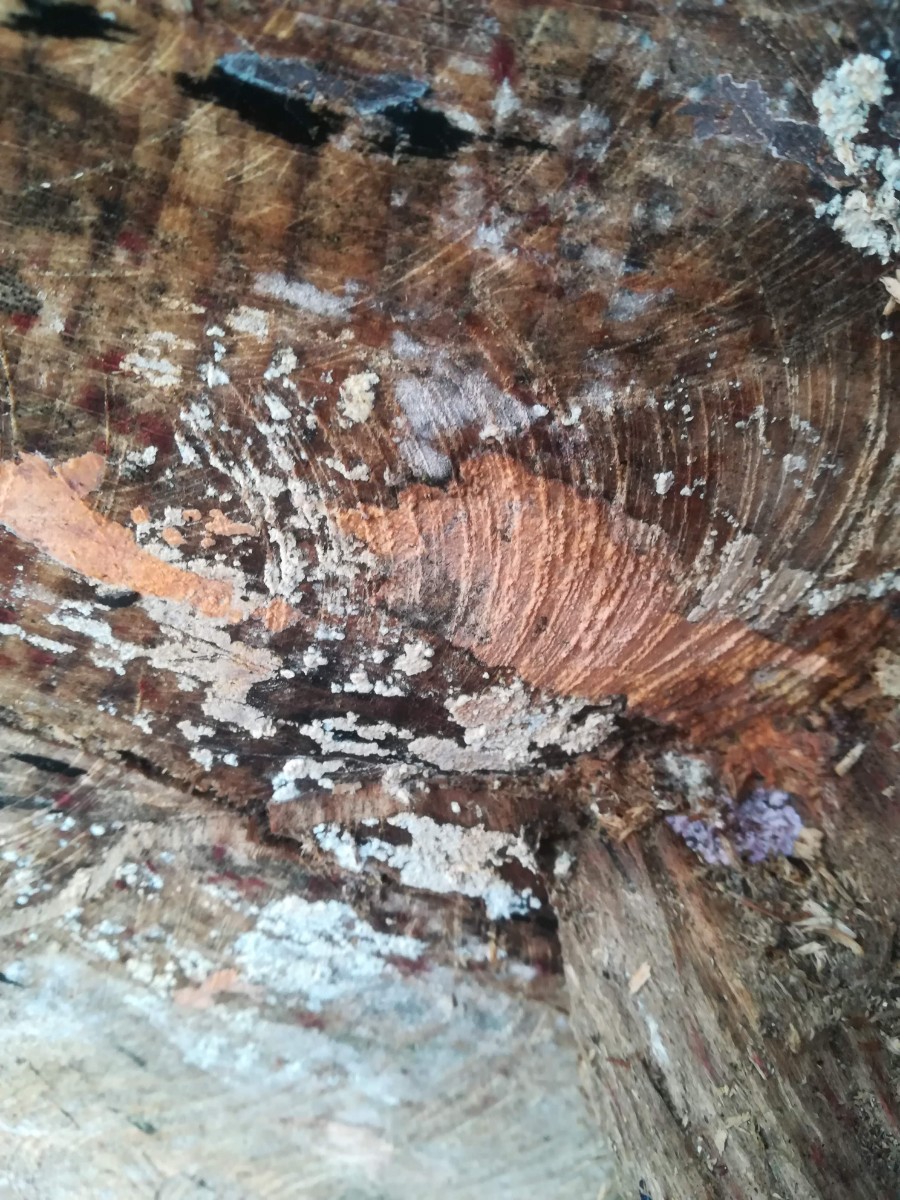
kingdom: Fungi
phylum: Basidiomycota
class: Agaricomycetes
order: Russulales
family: Peniophoraceae
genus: Peniophora
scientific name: Peniophora incarnata
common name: laksefarvet voksskind
